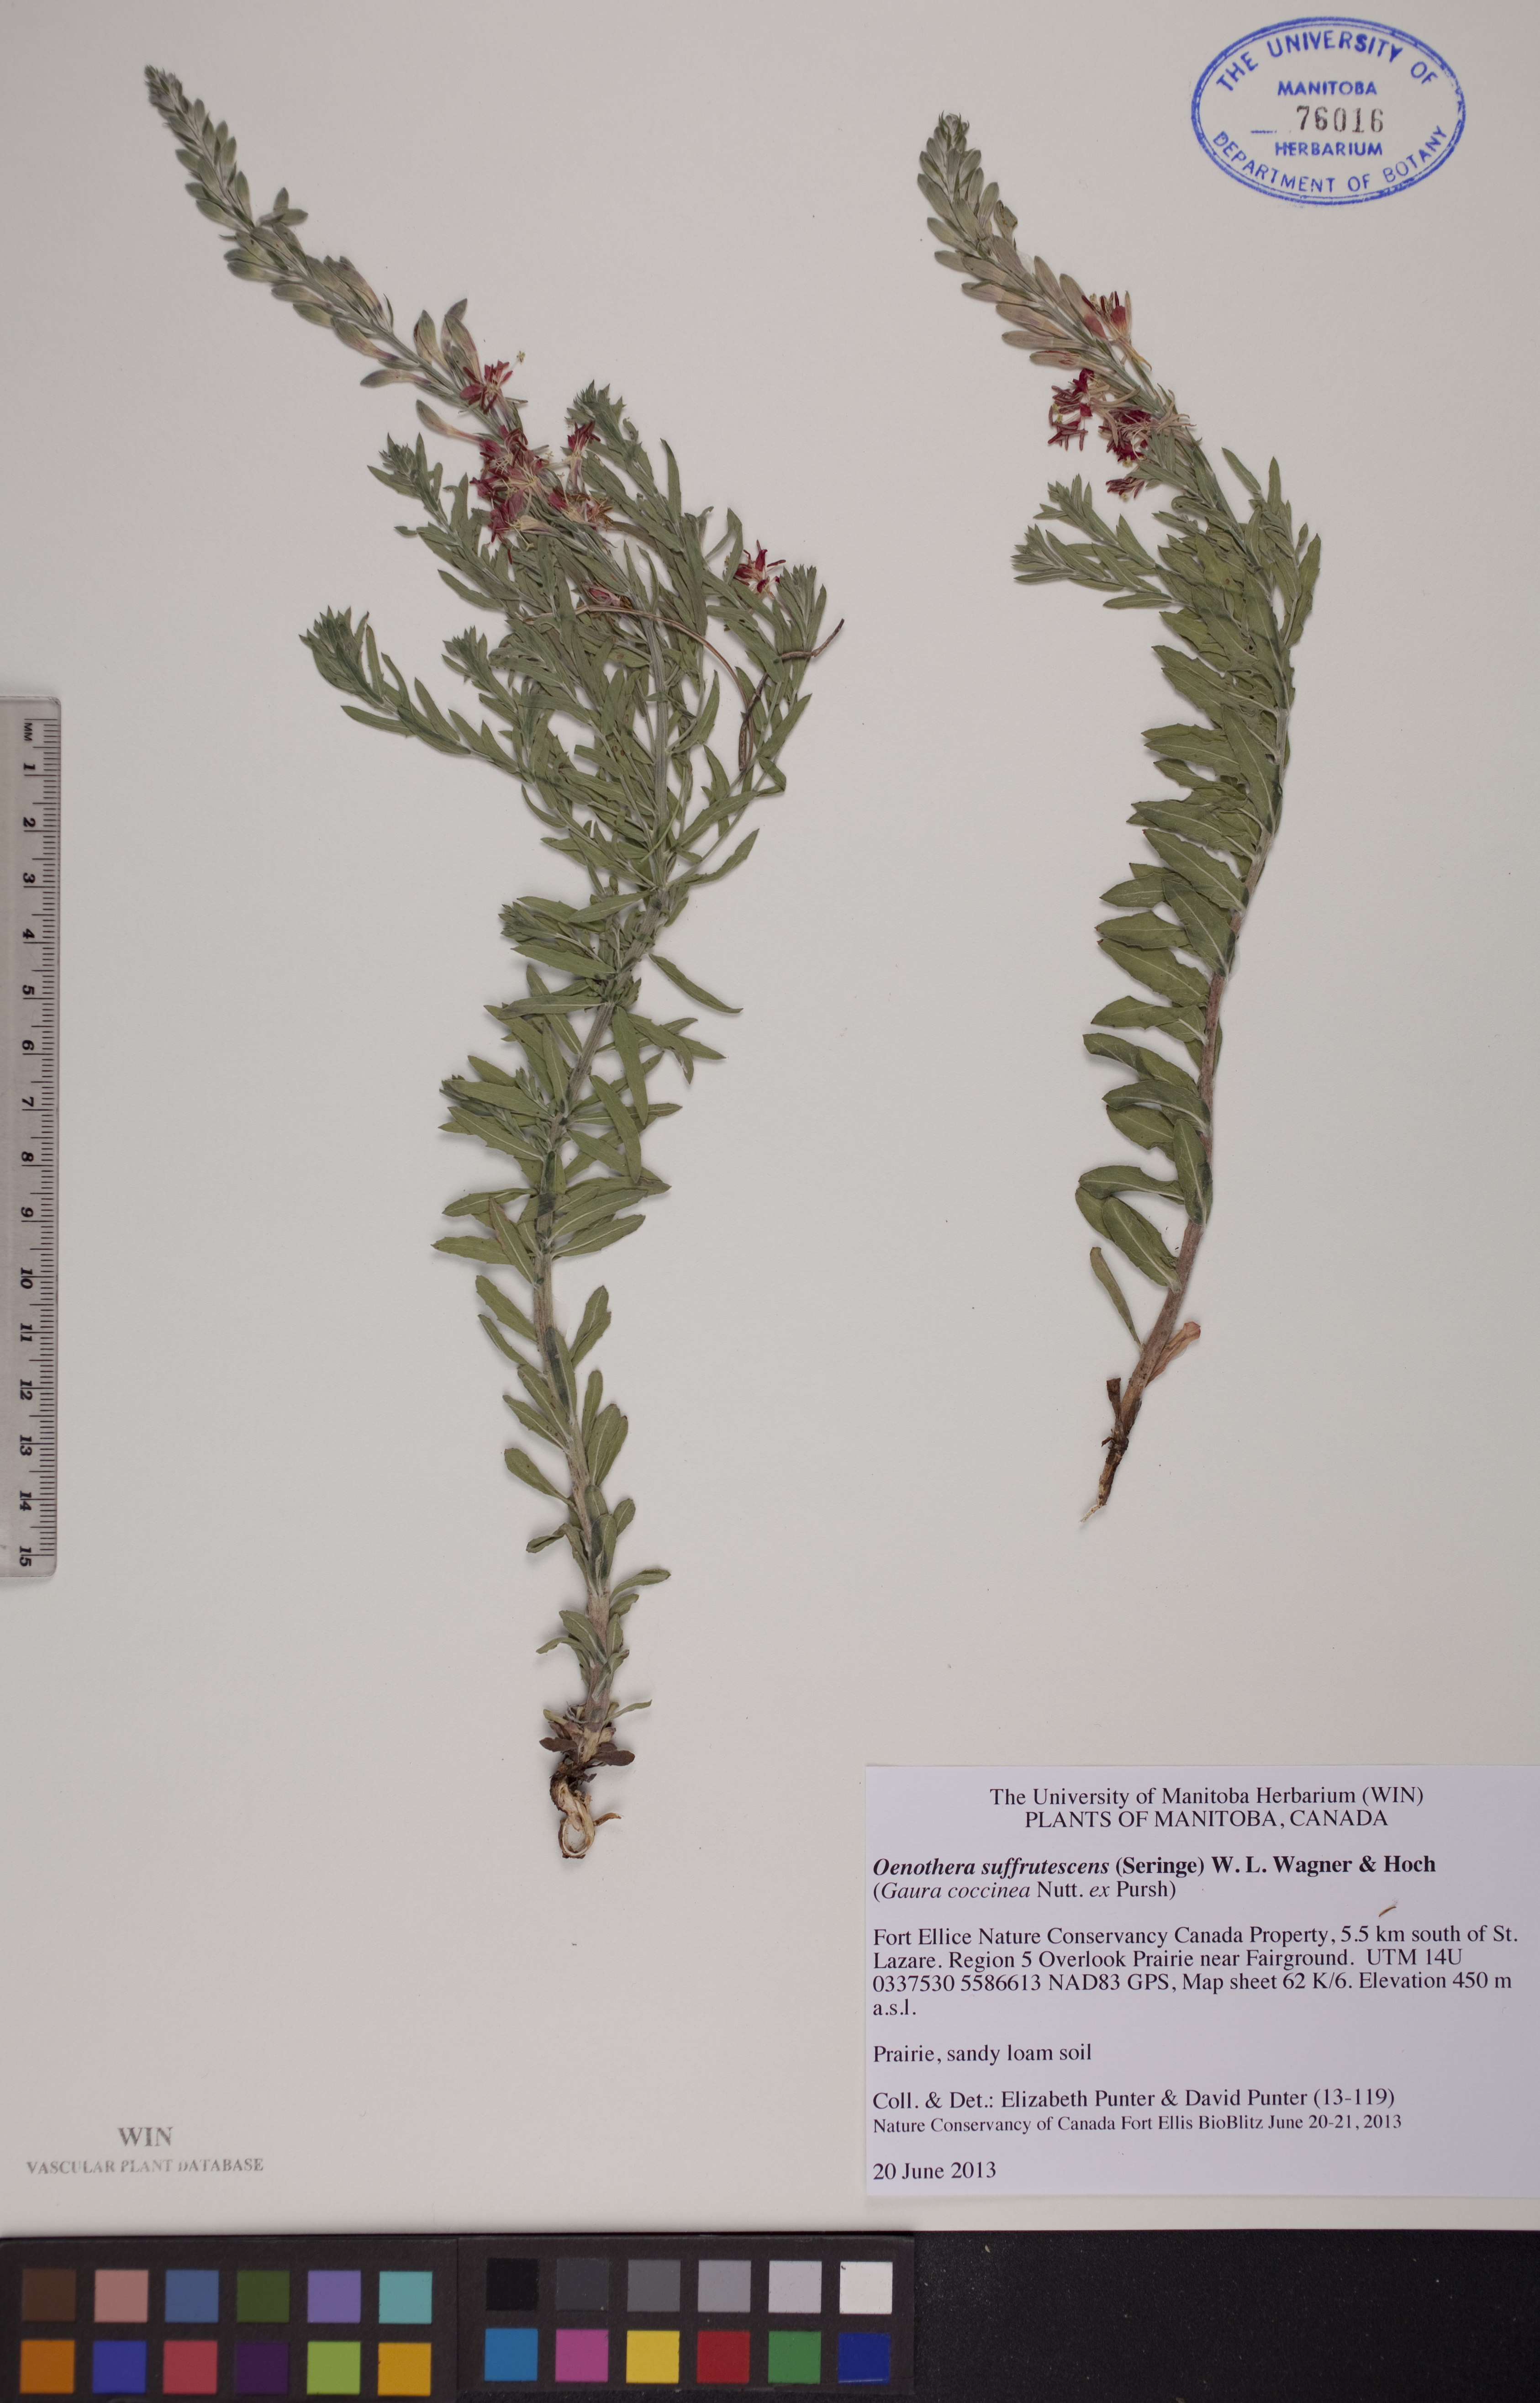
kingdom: Plantae
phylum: Tracheophyta
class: Magnoliopsida
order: Myrtales
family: Onagraceae
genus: Oenothera
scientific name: Oenothera suffrutescens
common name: Scarlet beeblossom
